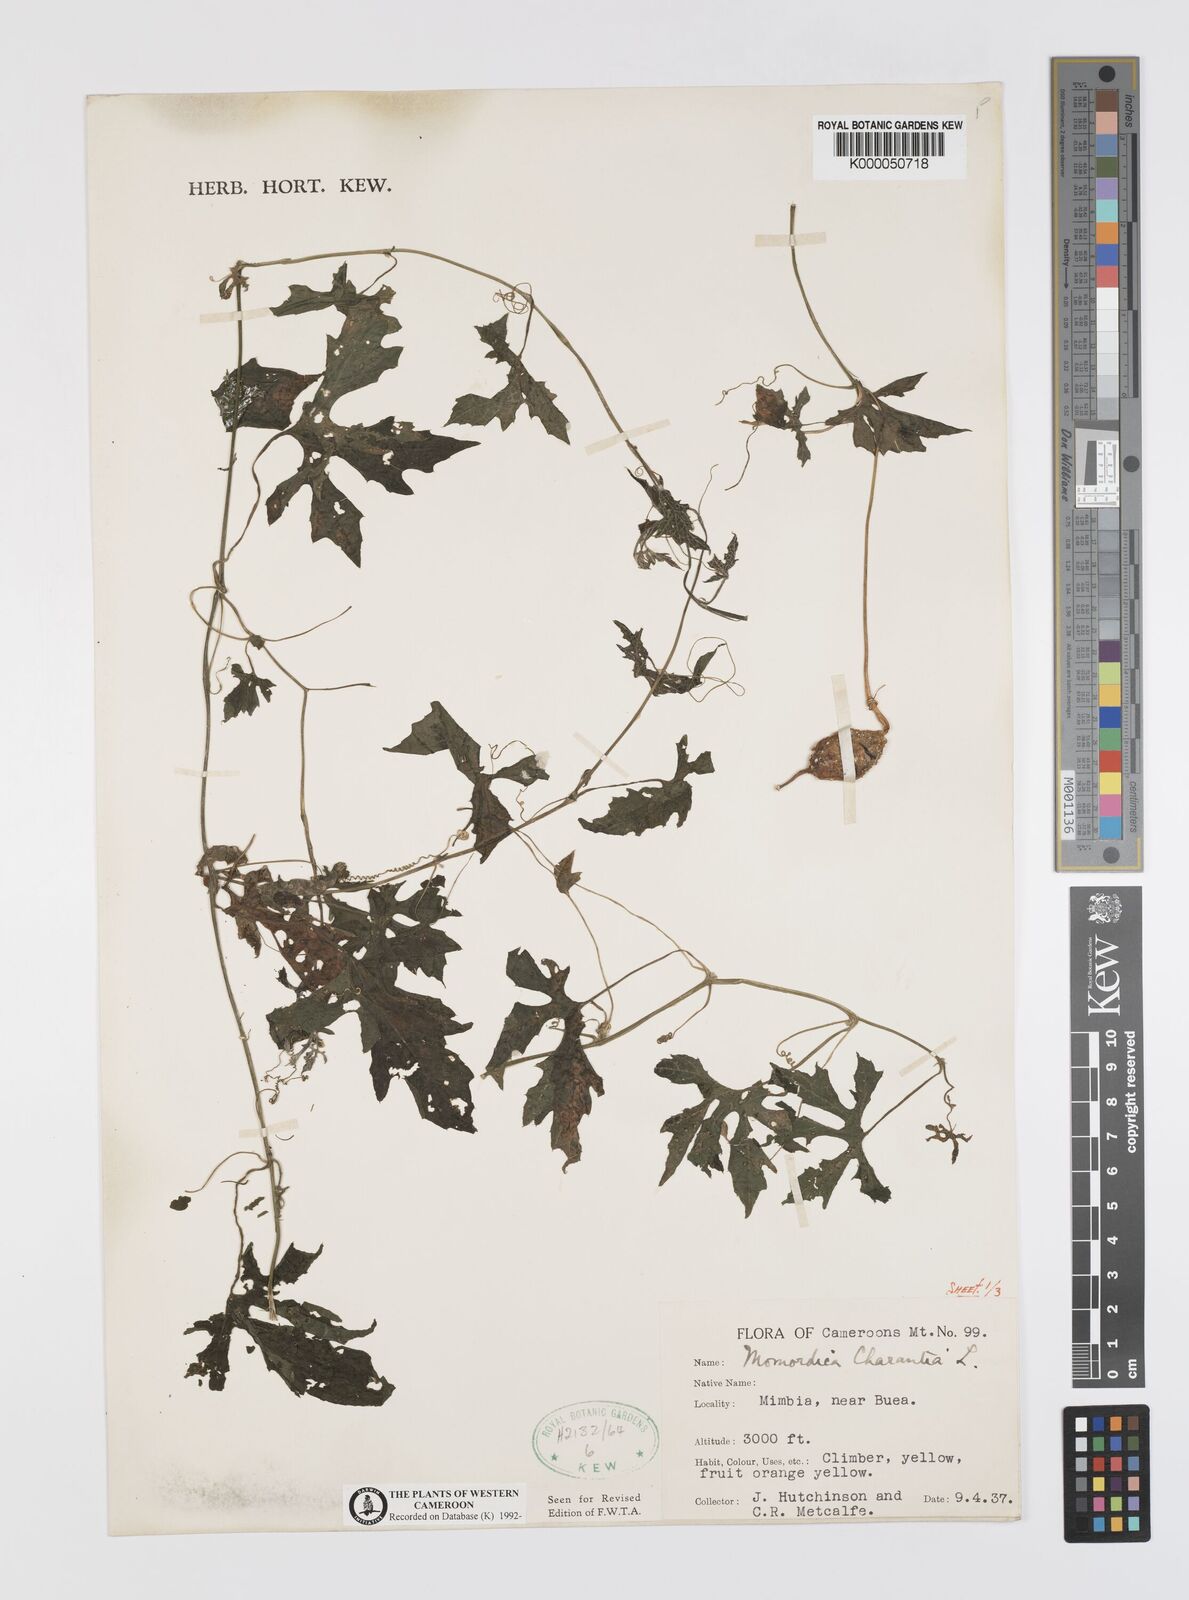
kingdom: Plantae
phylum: Tracheophyta
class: Magnoliopsida
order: Cucurbitales
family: Cucurbitaceae
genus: Momordica
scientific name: Momordica charantia
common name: Balsampear
